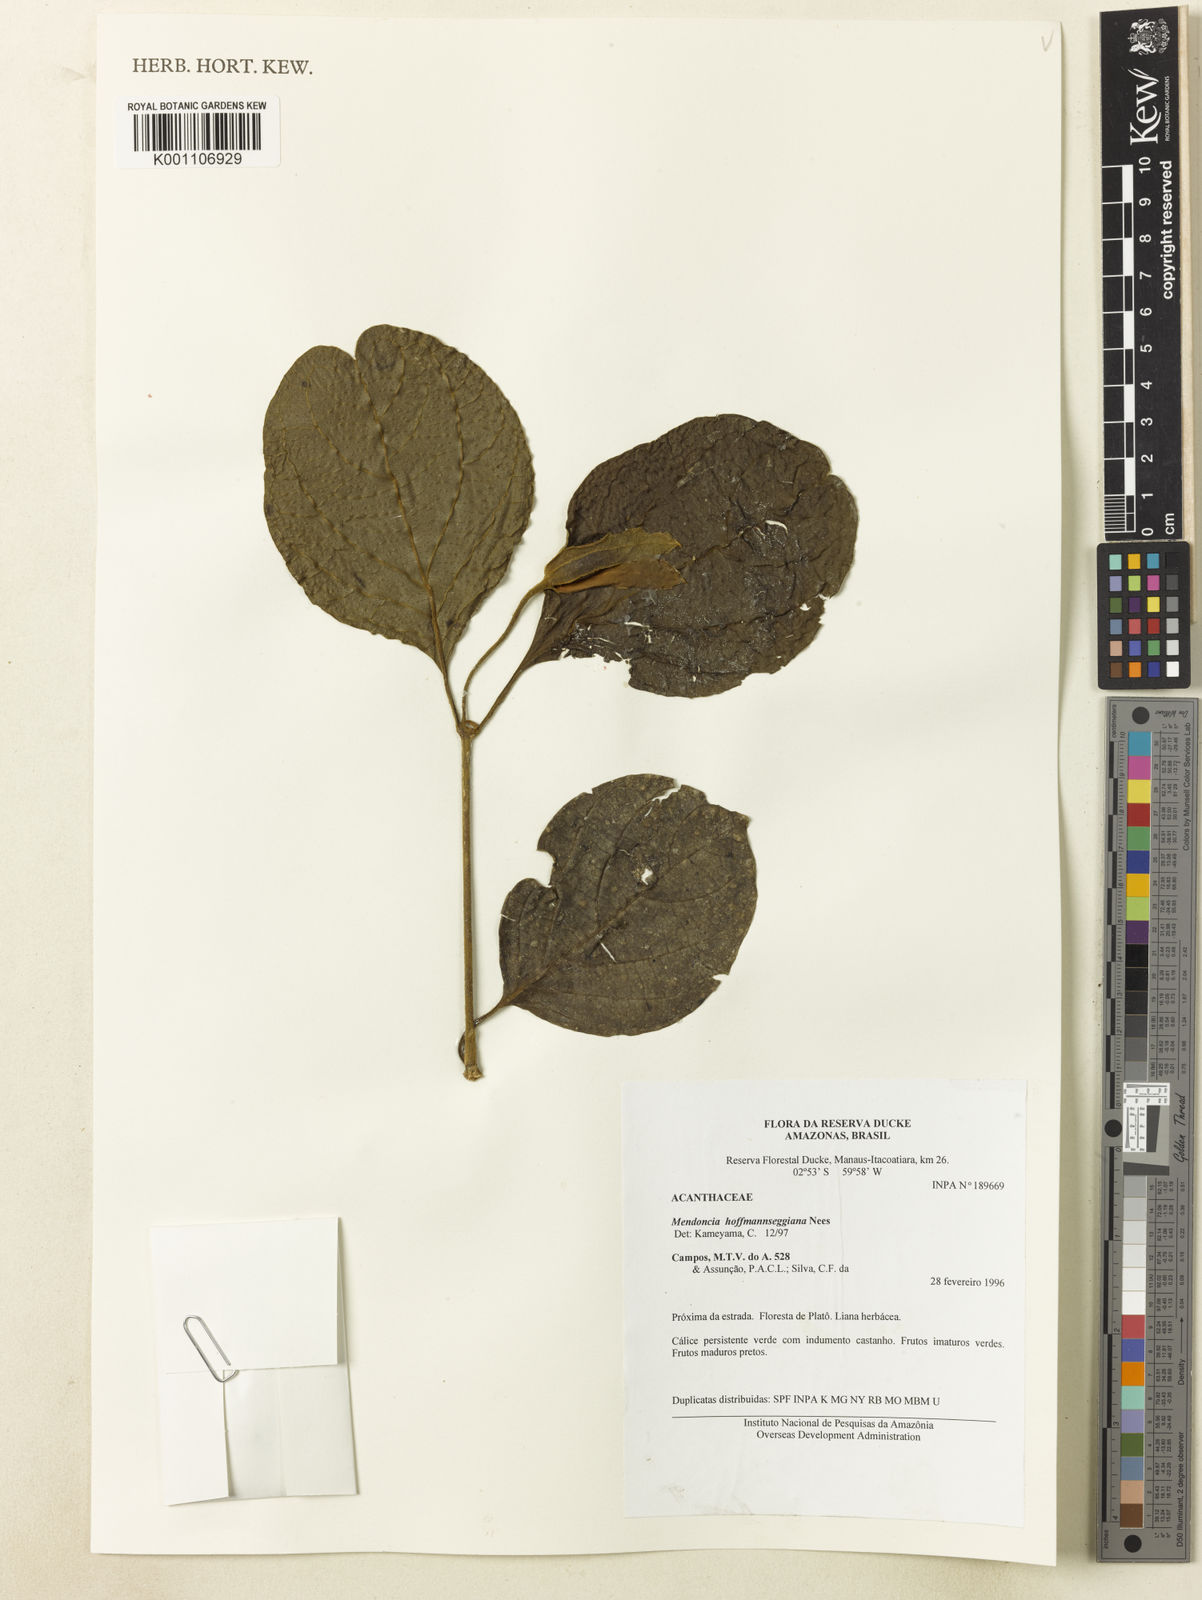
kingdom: Plantae
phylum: Tracheophyta
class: Magnoliopsida
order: Lamiales
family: Acanthaceae
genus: Mendoncia
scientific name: Mendoncia hoffmannseggiana
